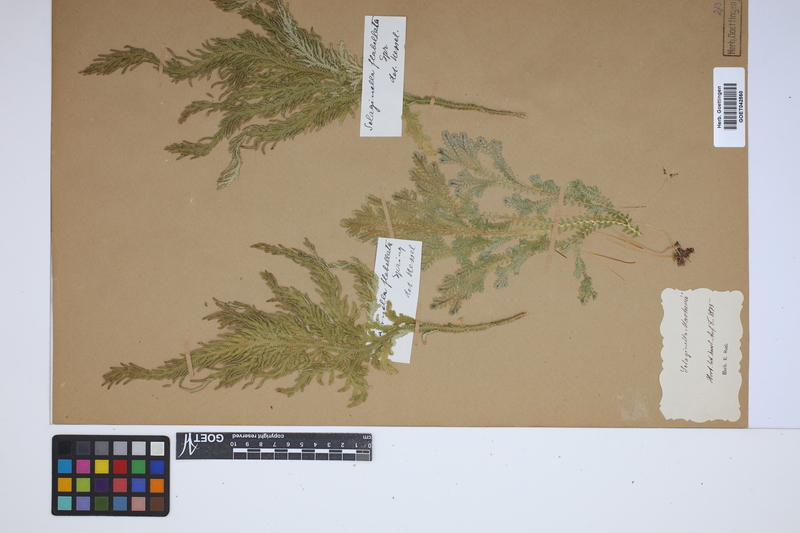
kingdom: Plantae
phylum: Tracheophyta
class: Lycopodiopsida
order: Selaginellales
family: Selaginellaceae
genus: Selaginella
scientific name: Selaginella martensii
